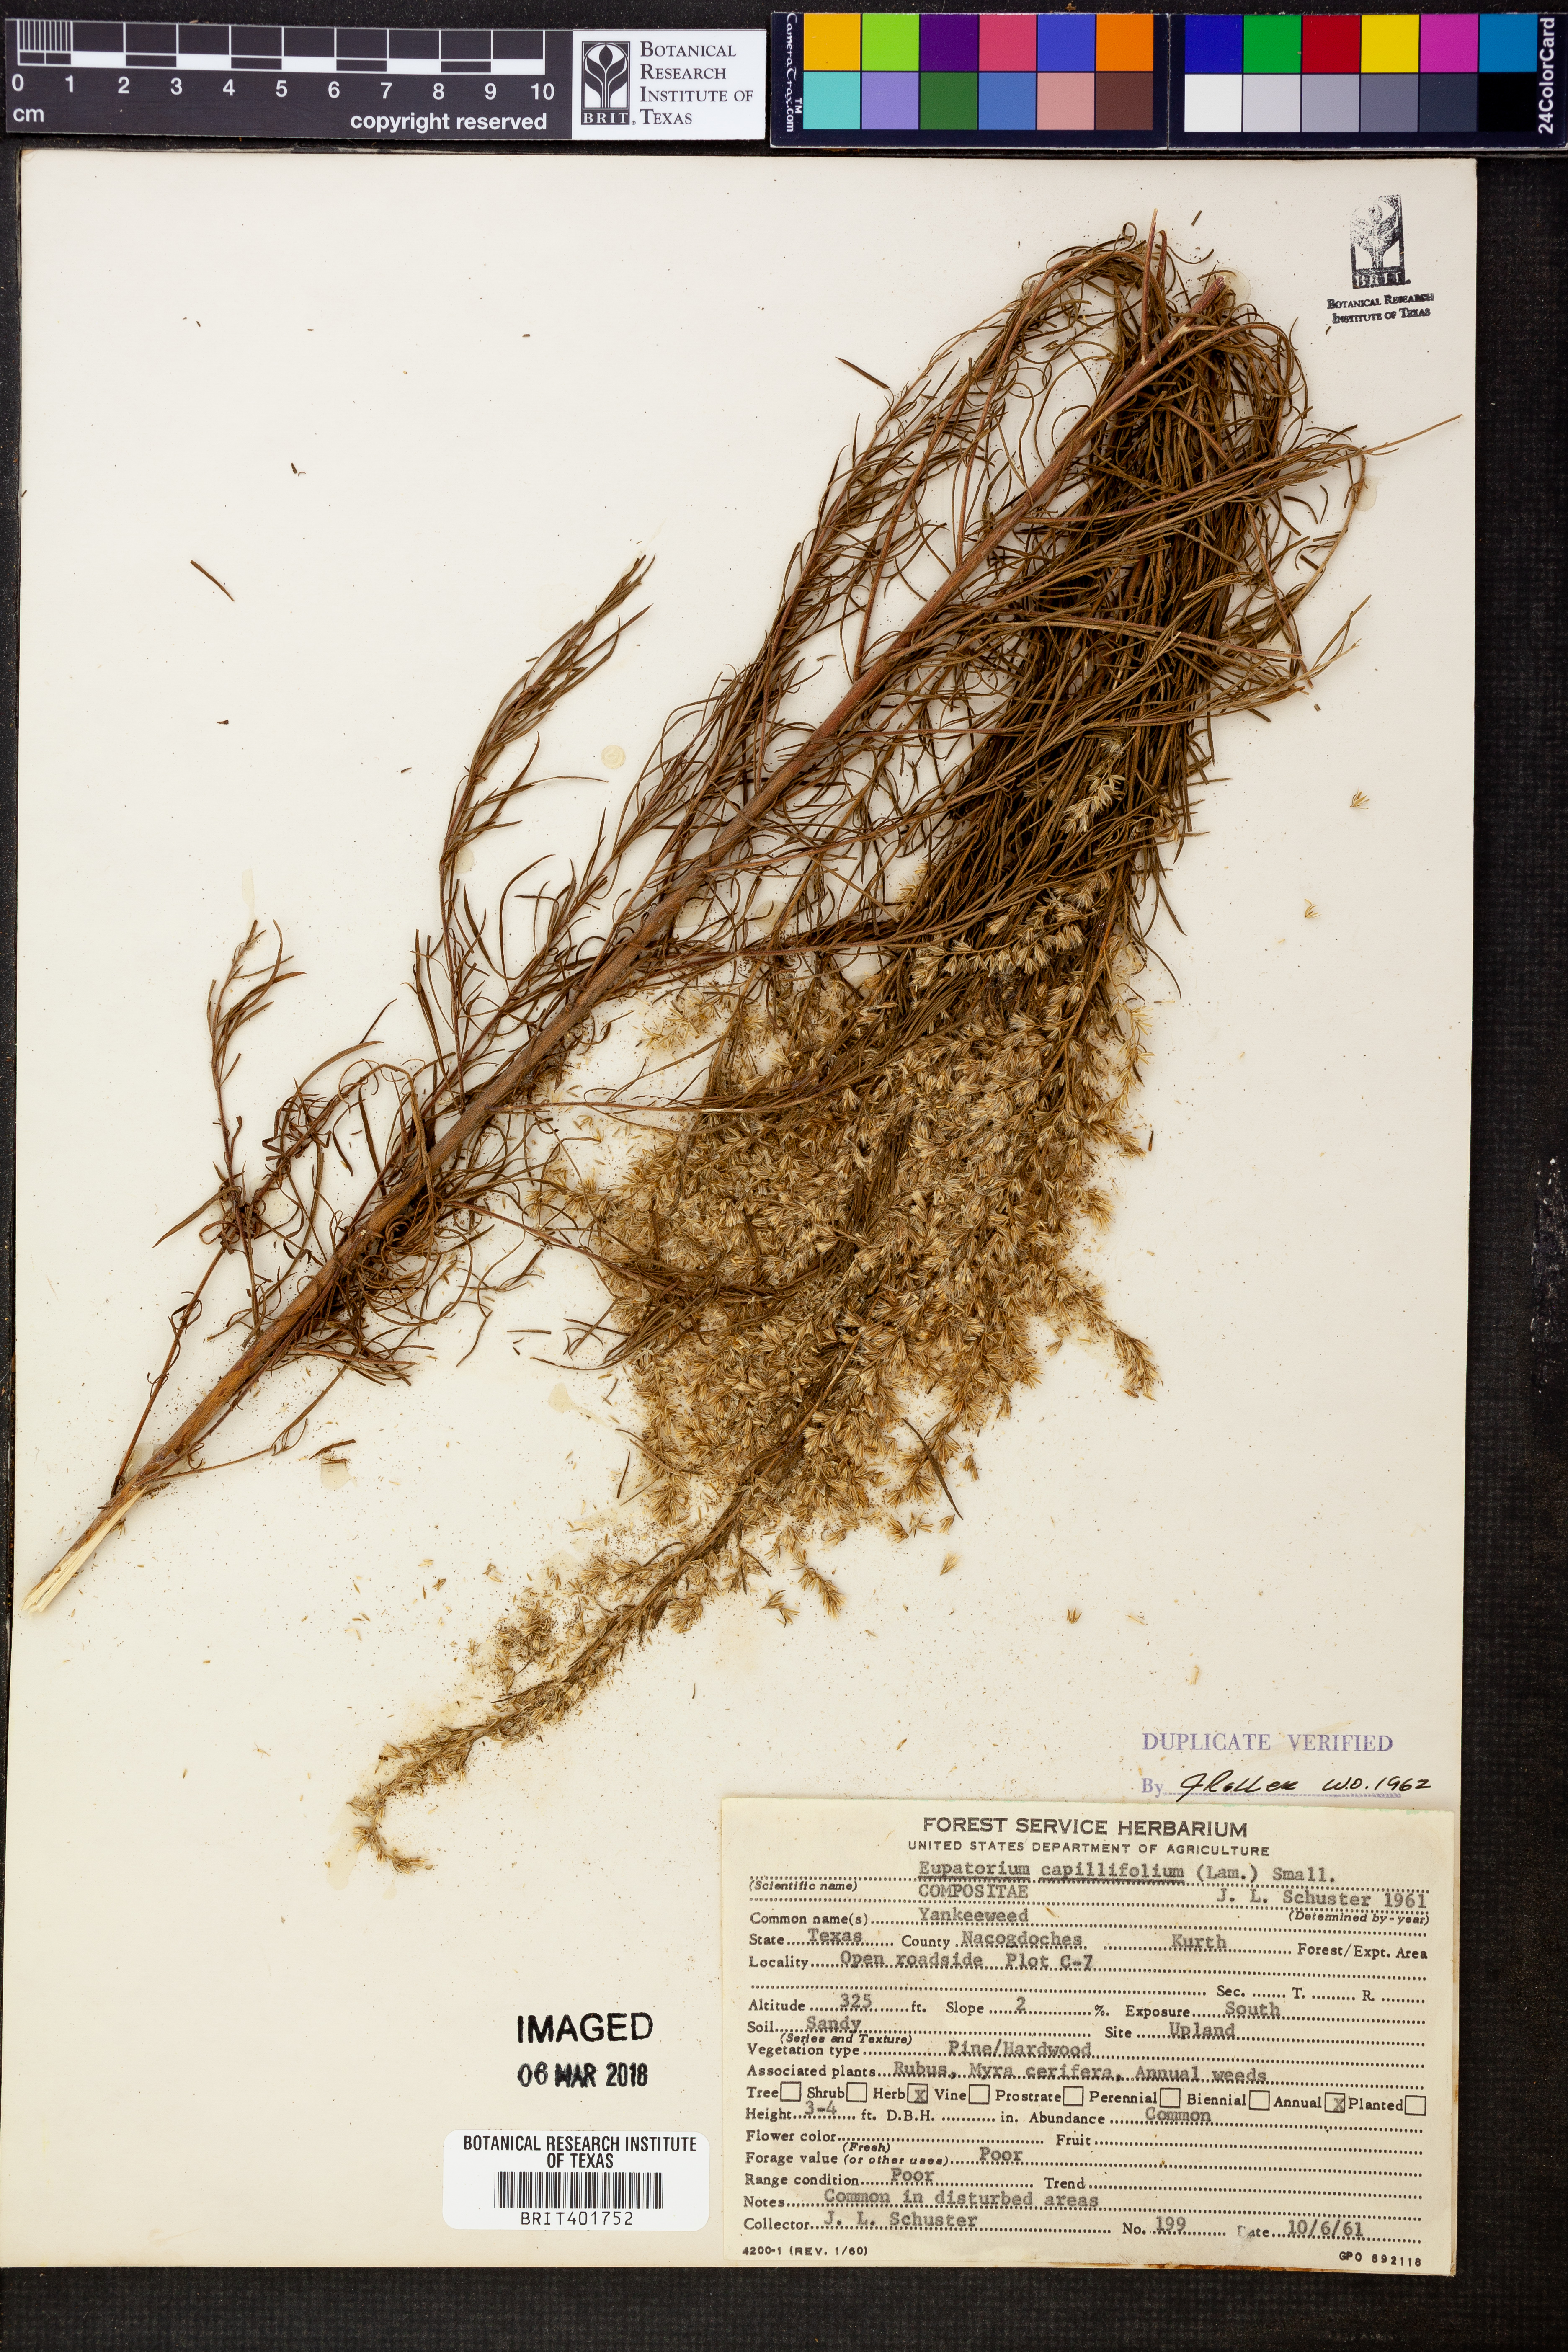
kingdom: Plantae
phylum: Tracheophyta
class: Magnoliopsida
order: Asterales
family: Asteraceae
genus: Eupatorium
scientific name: Eupatorium capillifolium
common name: Dog-fennel
